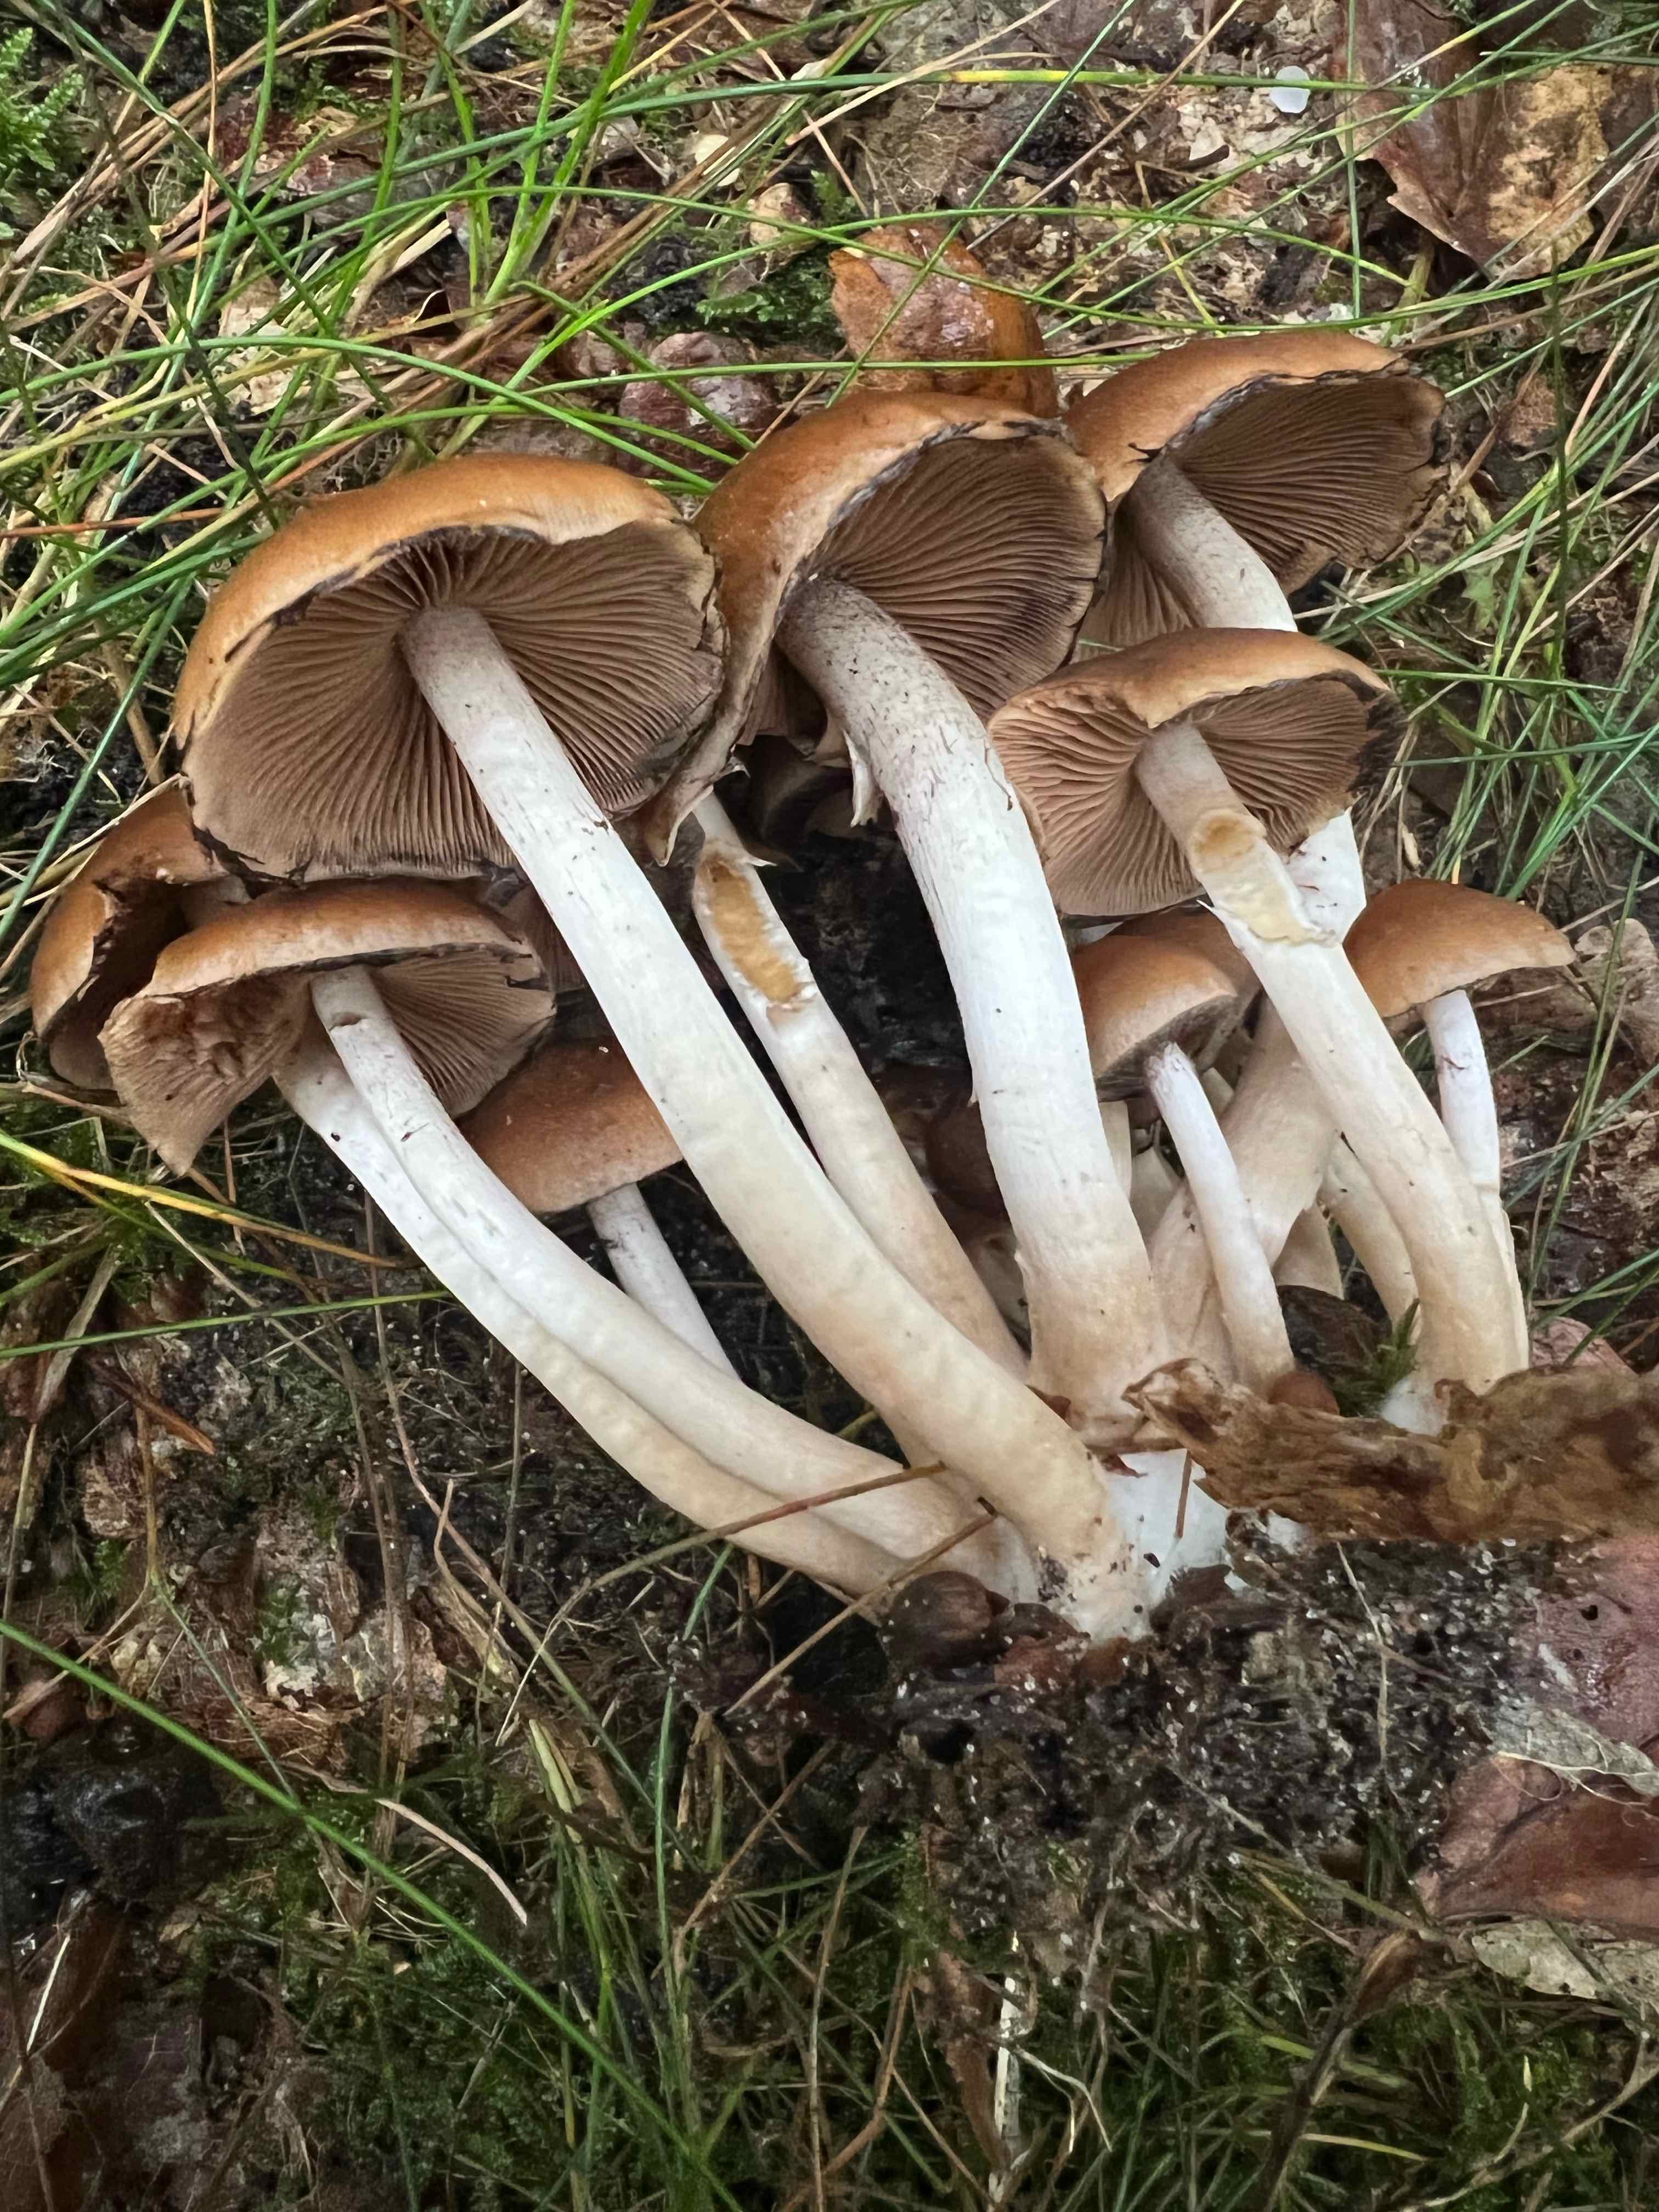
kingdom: Fungi
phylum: Basidiomycota
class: Agaricomycetes
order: Agaricales
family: Psathyrellaceae
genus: Psathyrella
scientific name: Psathyrella piluliformis
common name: lysstokket mørkhat
